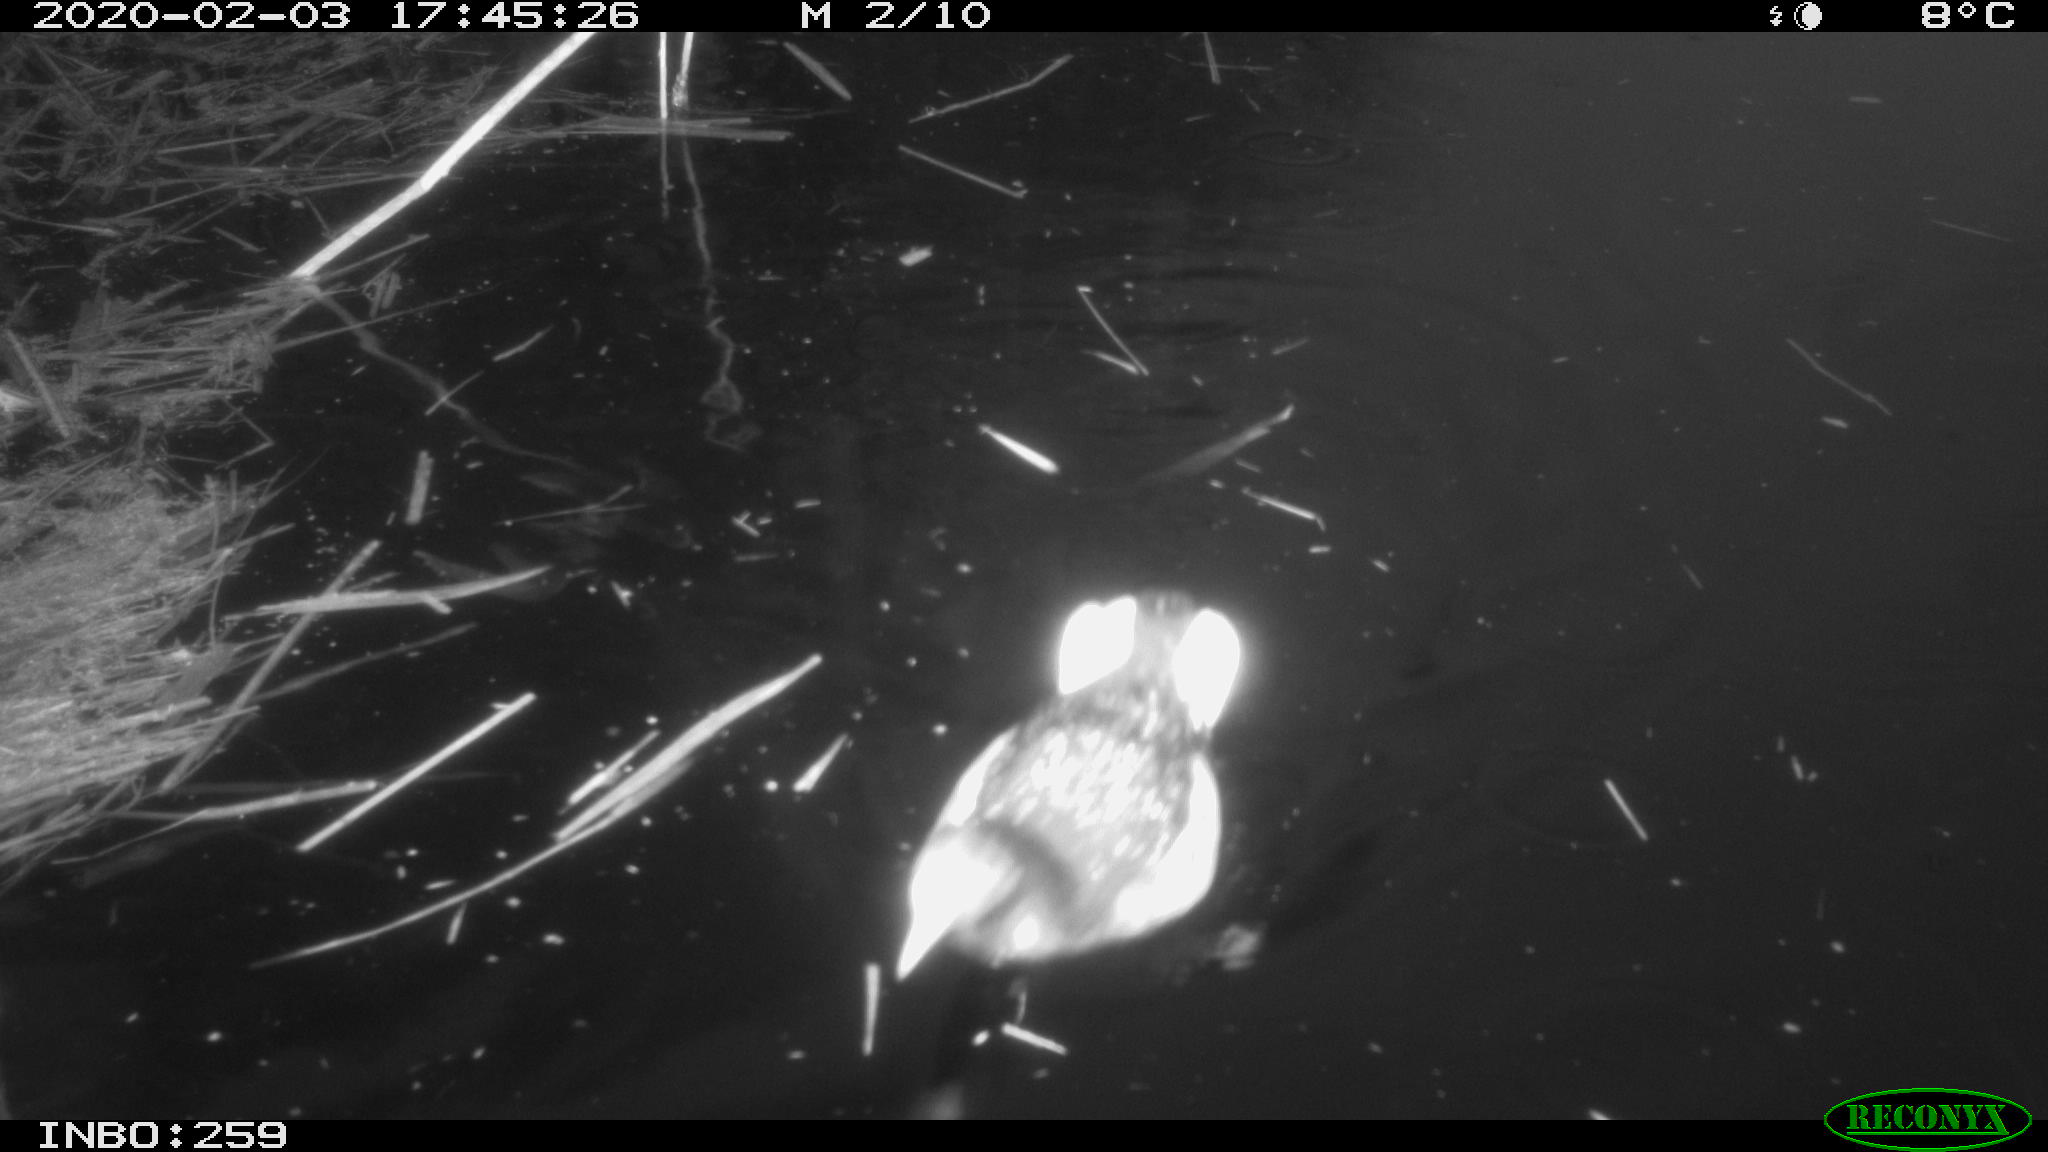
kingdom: Animalia
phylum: Chordata
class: Aves
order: Gruiformes
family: Rallidae
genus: Gallinula
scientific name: Gallinula chloropus
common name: Common moorhen
